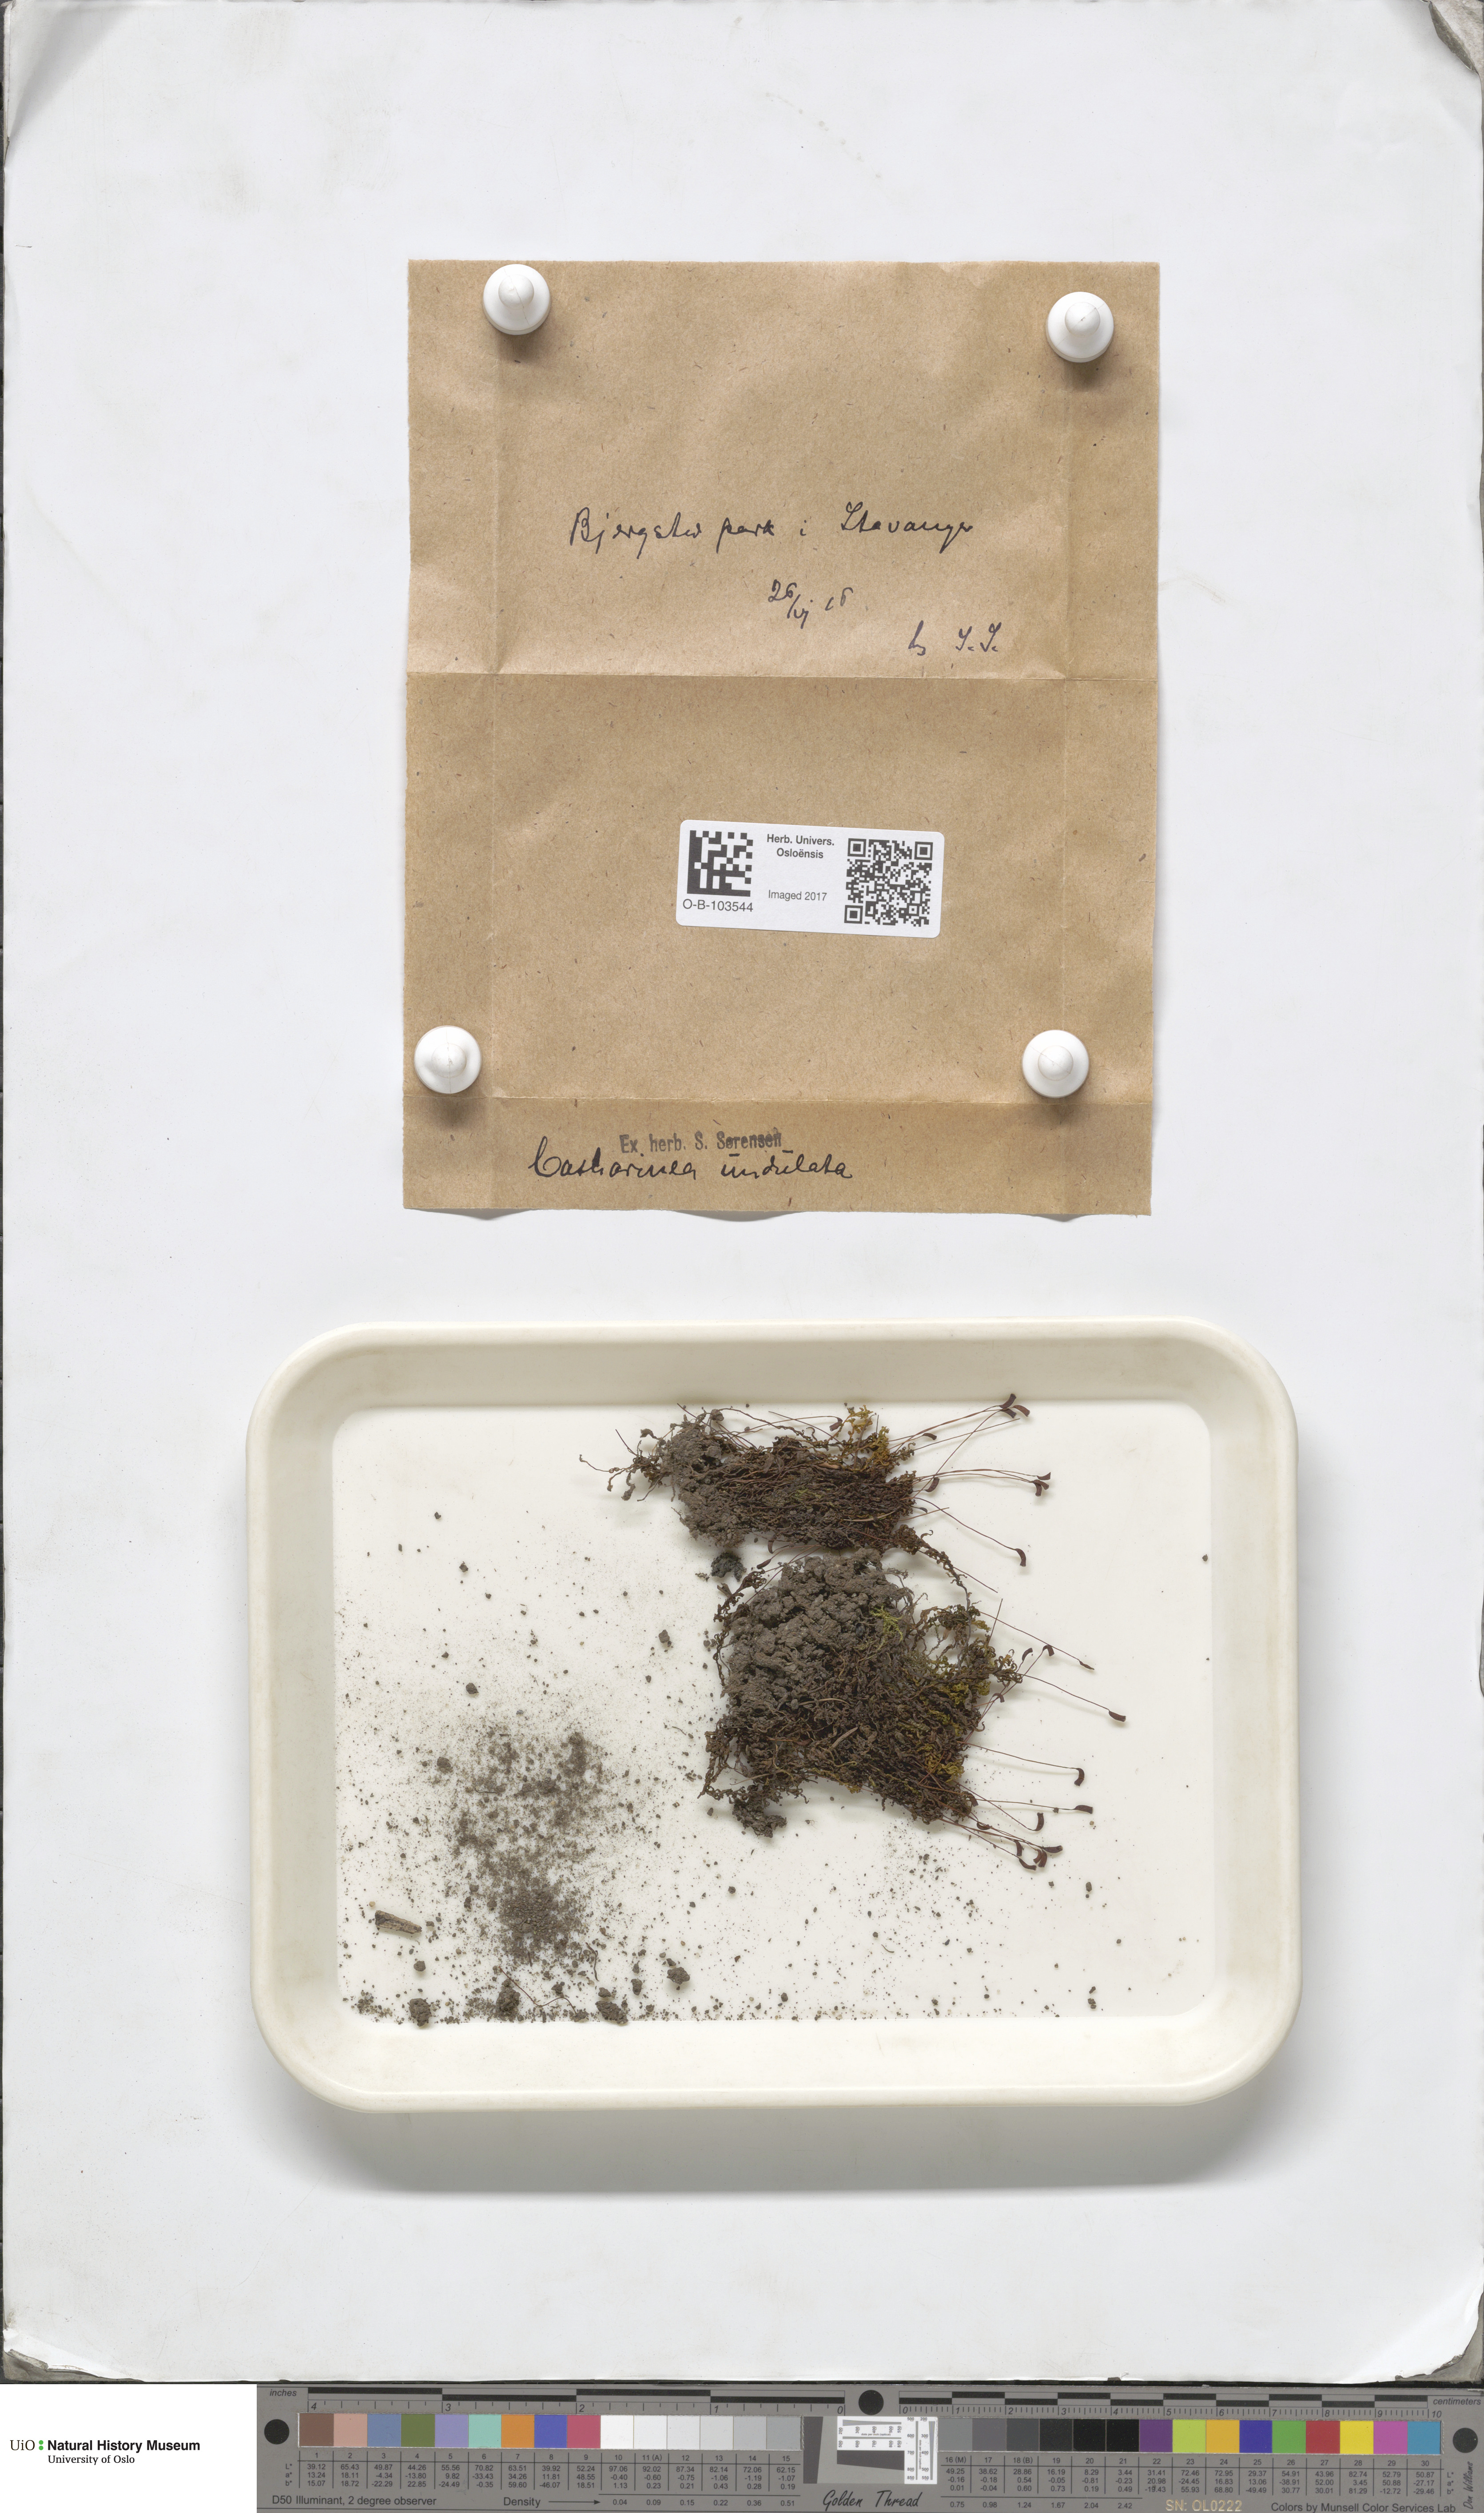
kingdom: Plantae
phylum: Bryophyta
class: Polytrichopsida
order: Polytrichales
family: Polytrichaceae
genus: Atrichum
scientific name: Atrichum undulatum
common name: Common smoothcap
